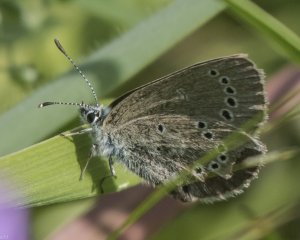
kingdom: Animalia
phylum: Arthropoda
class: Insecta
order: Lepidoptera
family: Lycaenidae
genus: Glaucopsyche
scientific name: Glaucopsyche lygdamus
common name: Silvery Blue
